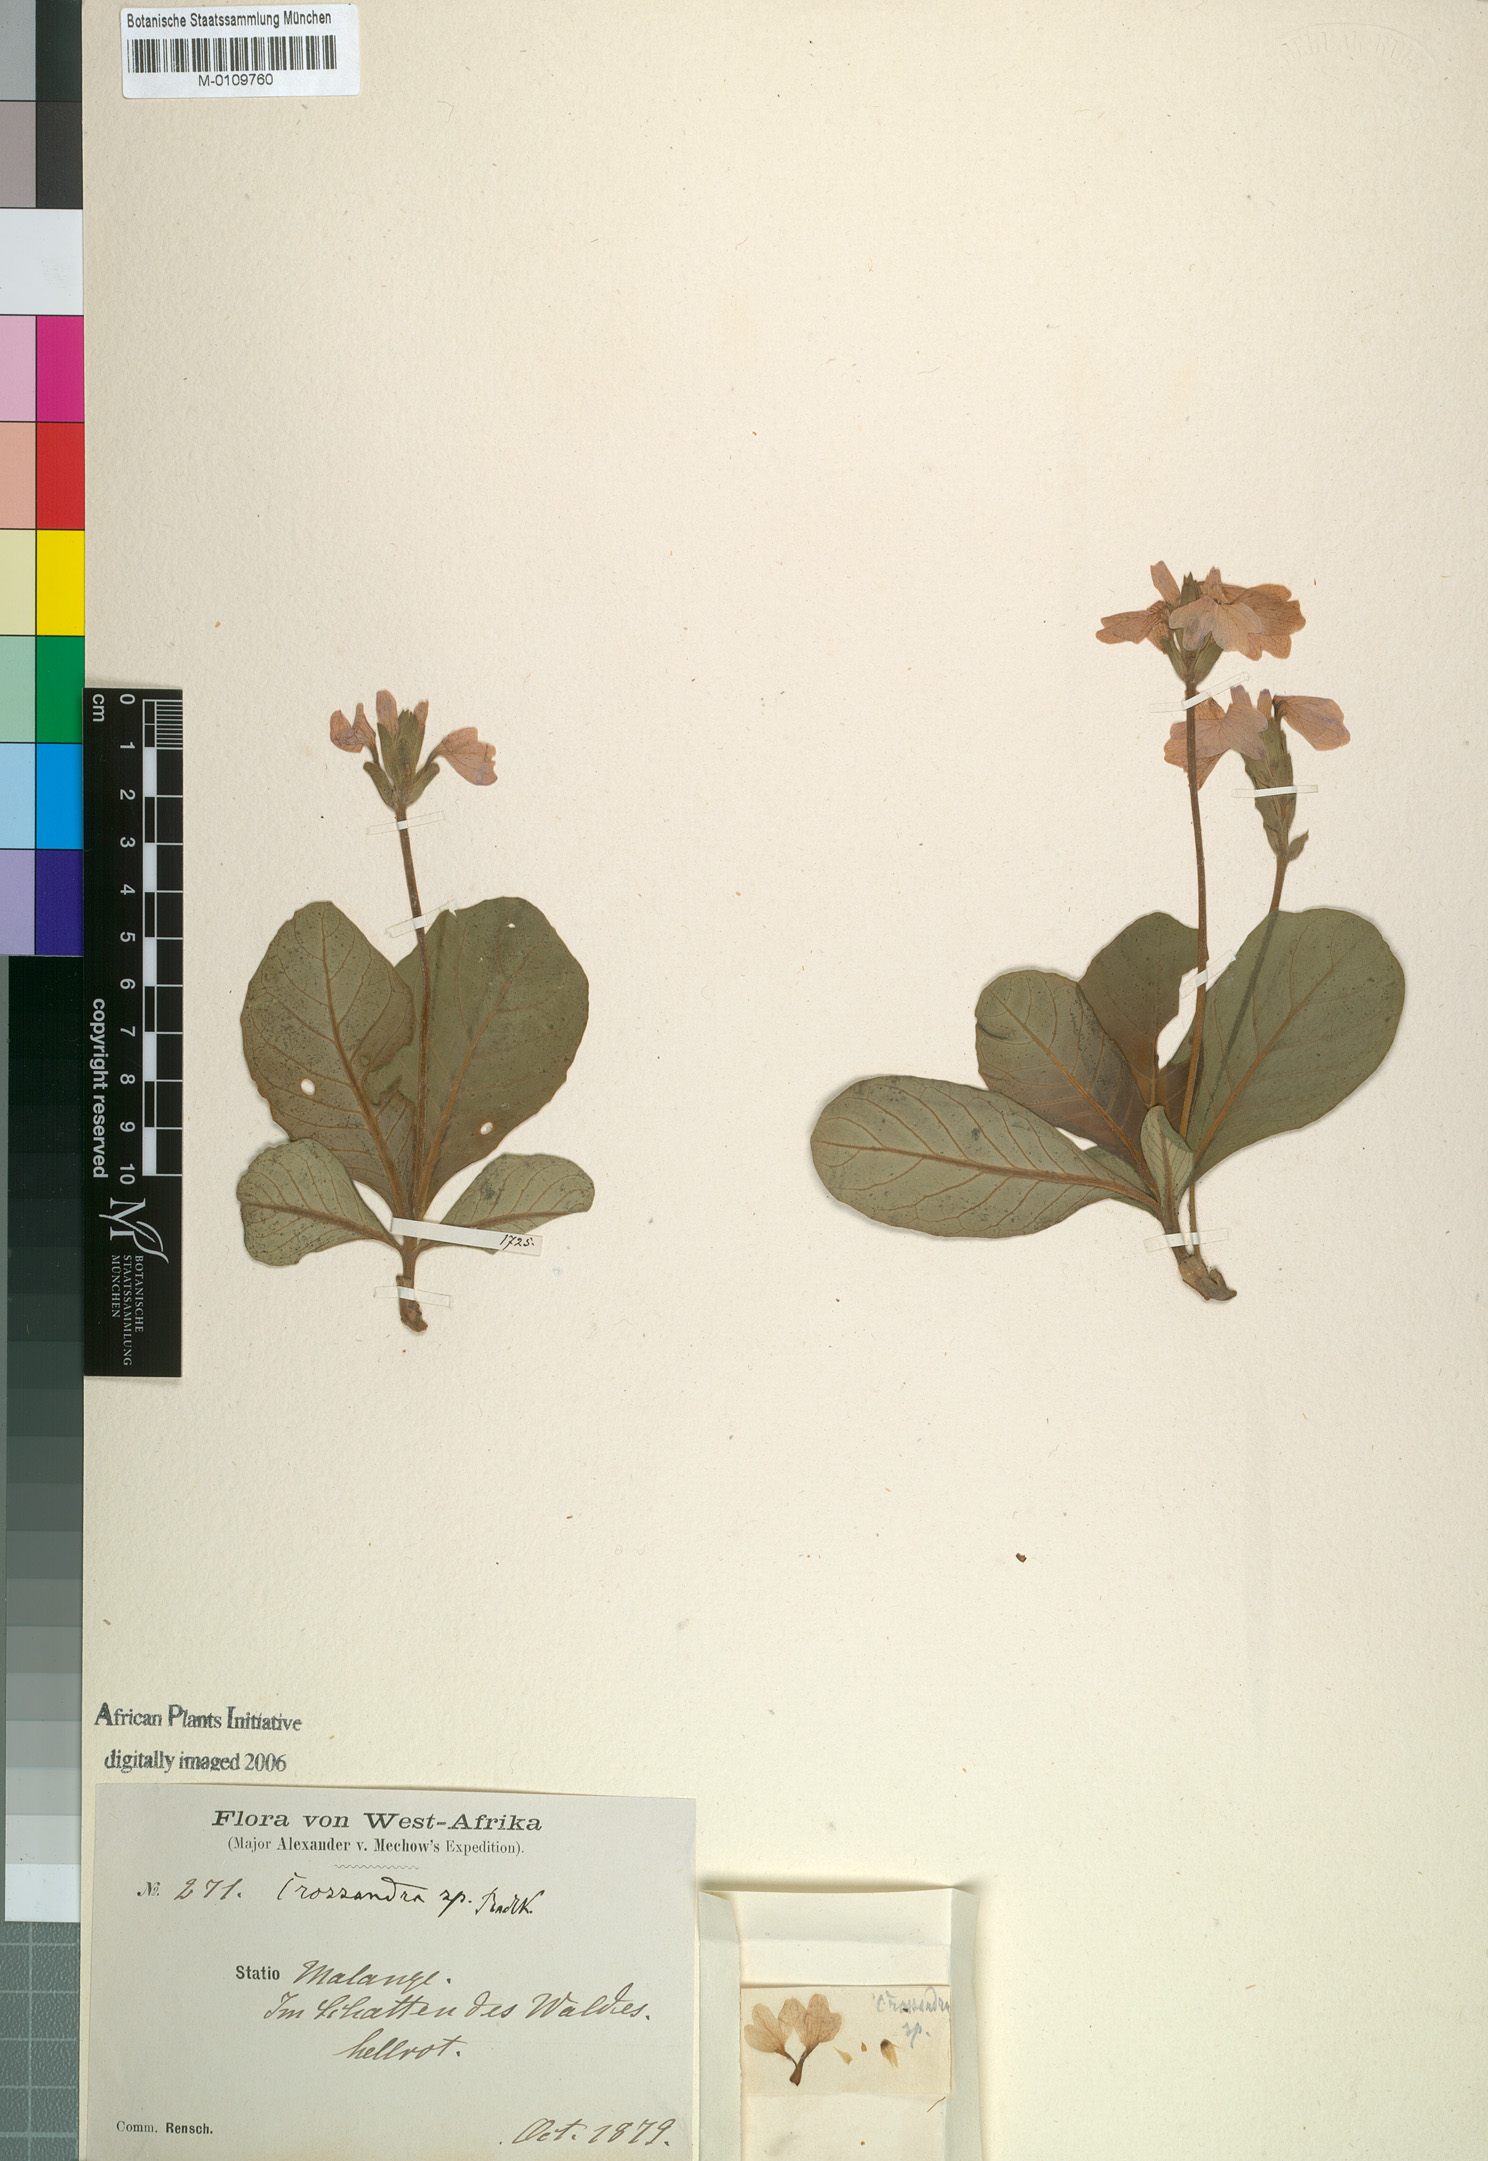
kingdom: Plantae
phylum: Tracheophyta
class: Magnoliopsida
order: Lamiales
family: Acanthaceae
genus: Crossandra
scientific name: Crossandra primuloides
